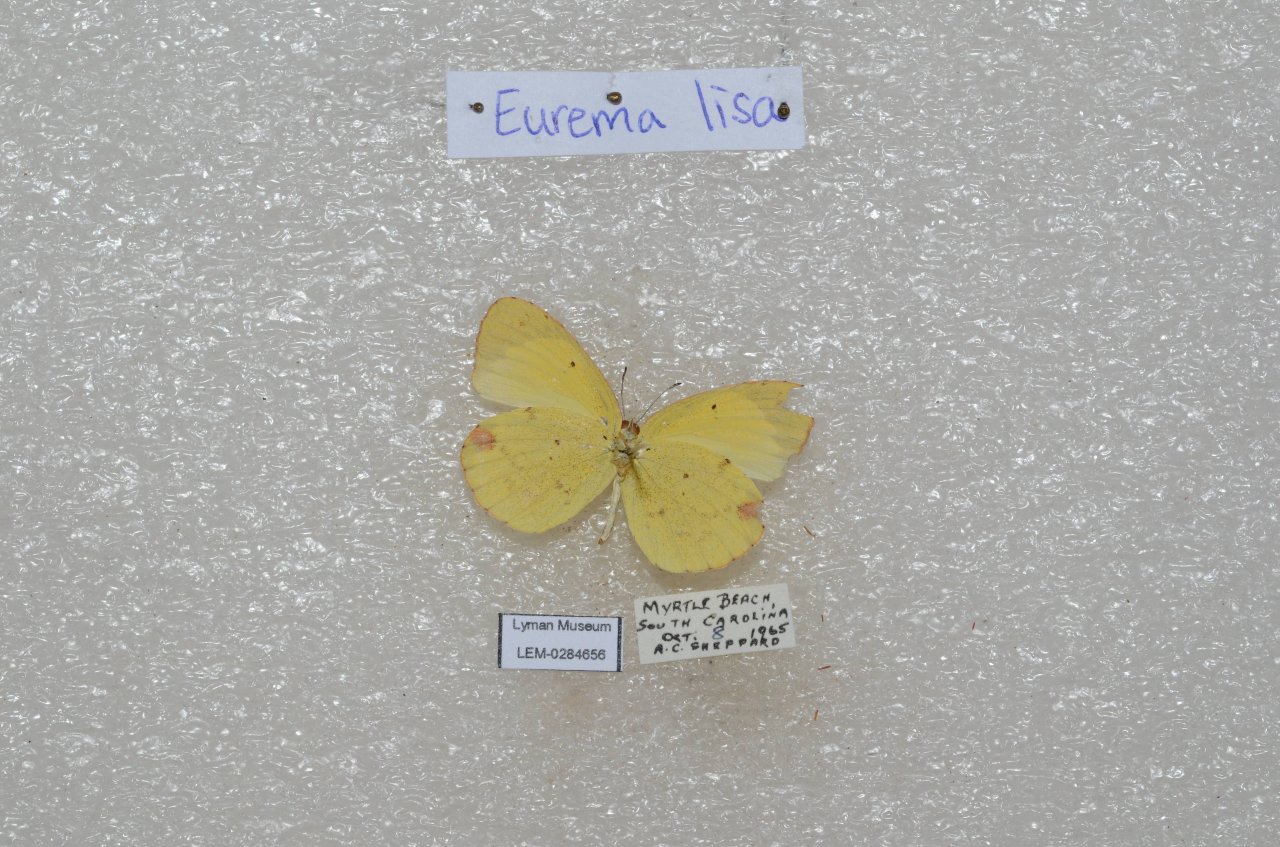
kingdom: Animalia
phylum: Arthropoda
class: Insecta
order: Lepidoptera
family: Pieridae
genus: Pyrisitia
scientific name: Pyrisitia lisa
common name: Little Yellow
